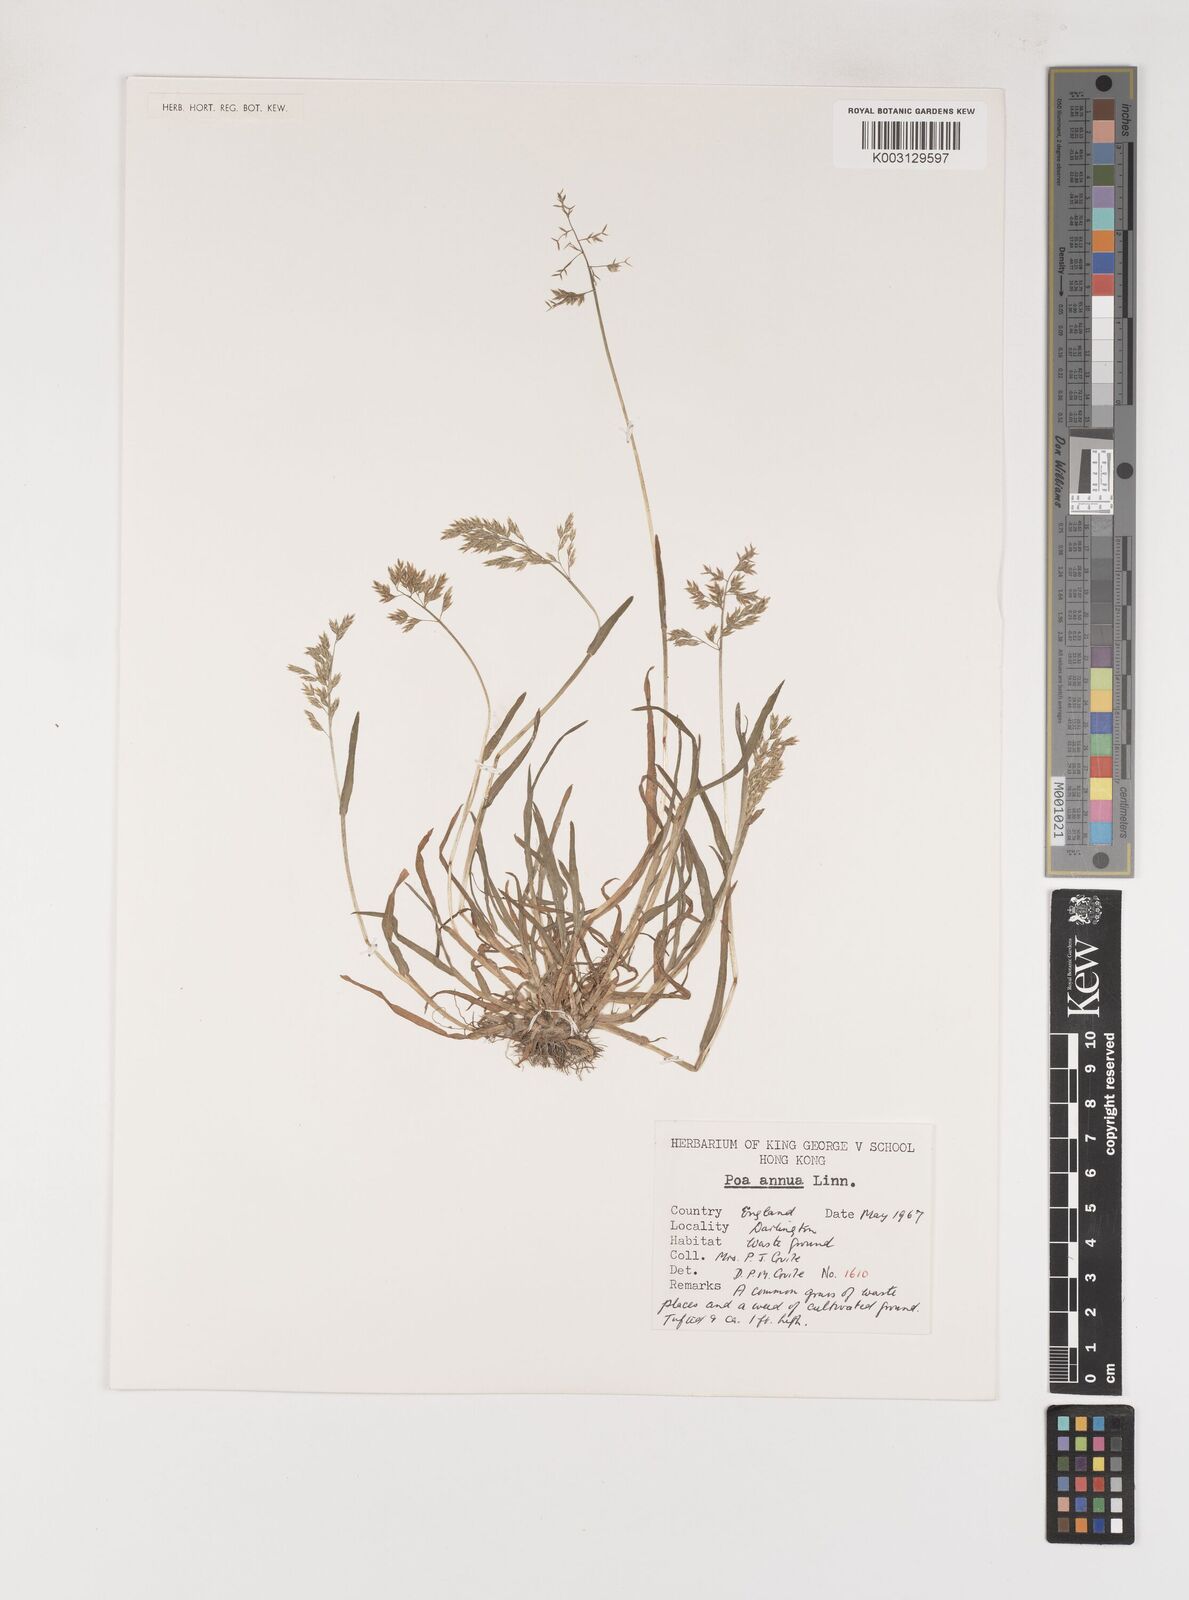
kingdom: Plantae
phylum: Tracheophyta
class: Liliopsida
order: Poales
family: Poaceae
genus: Poa
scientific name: Poa annua
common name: Annual bluegrass
